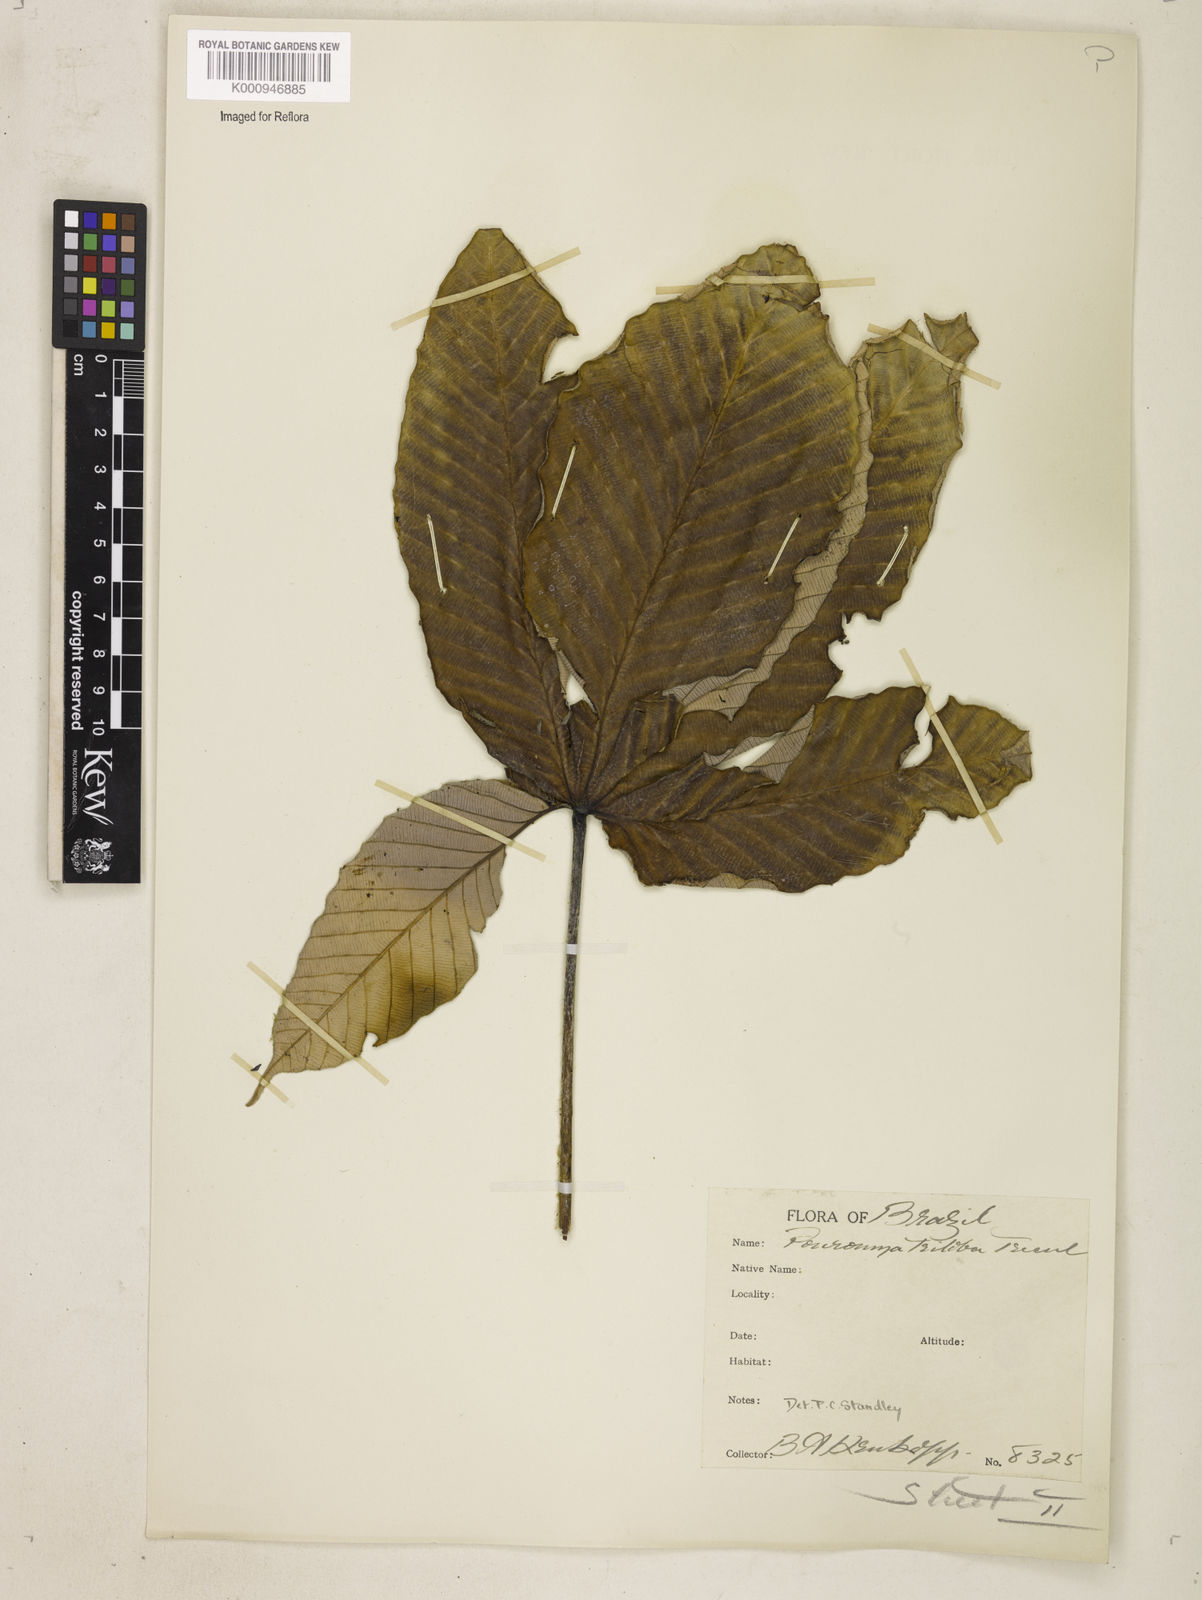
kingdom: Plantae
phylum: Tracheophyta
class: Magnoliopsida
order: Rosales
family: Urticaceae
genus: Pourouma
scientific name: Pourouma
